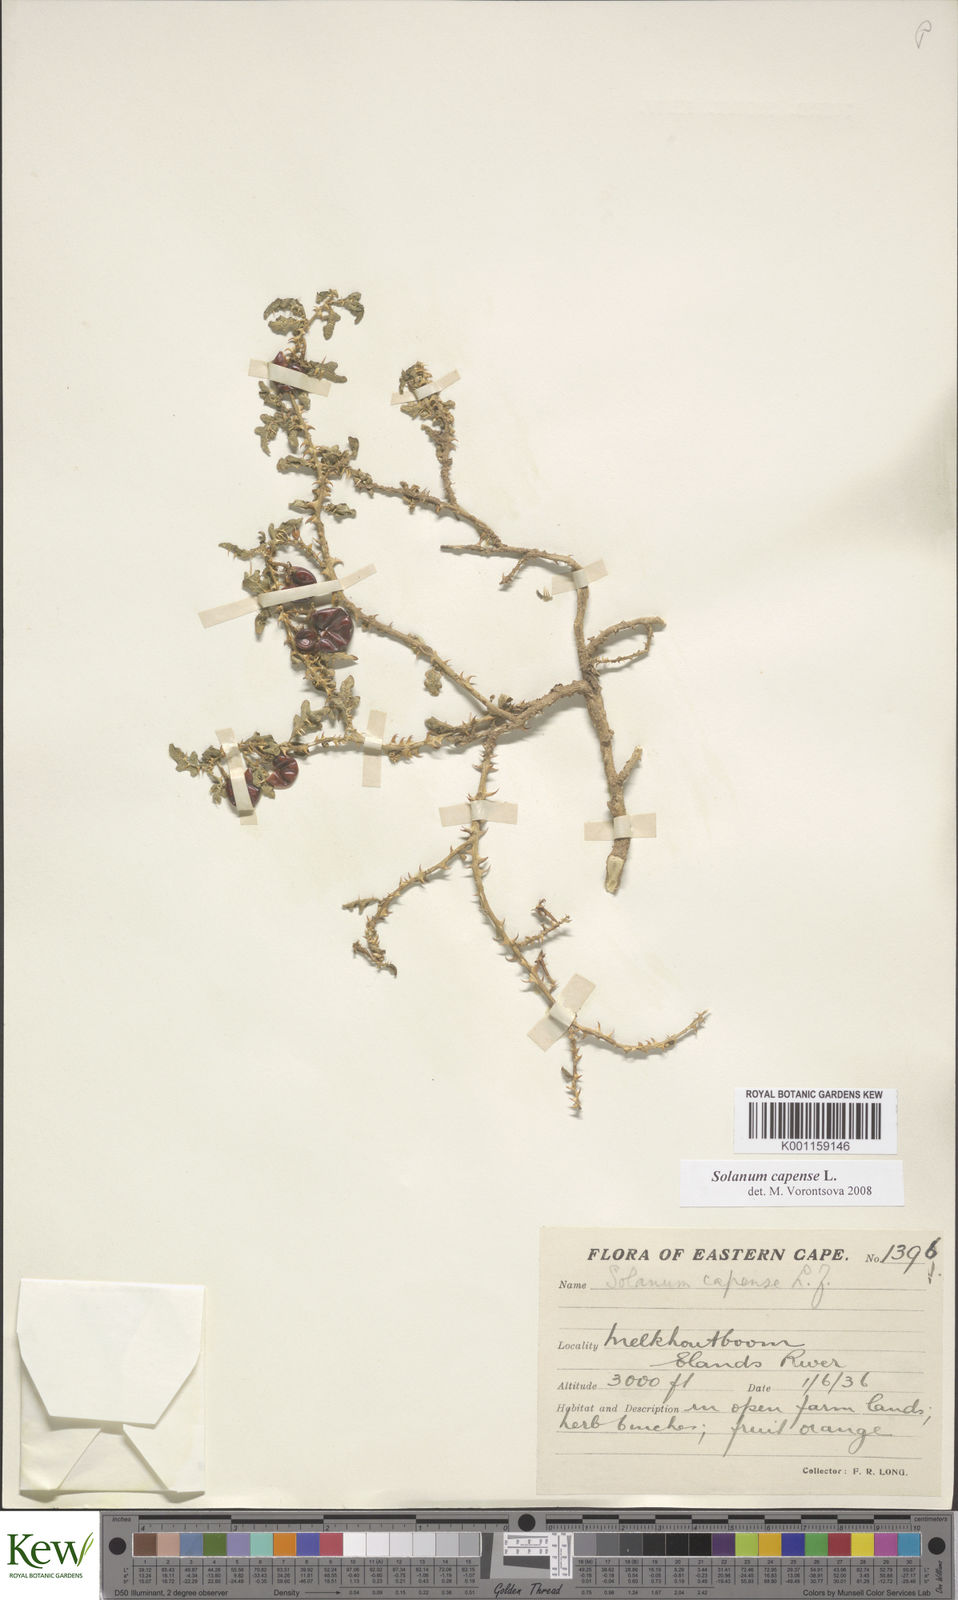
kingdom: Plantae
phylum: Tracheophyta
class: Magnoliopsida
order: Solanales
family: Solanaceae
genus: Solanum
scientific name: Solanum capense
